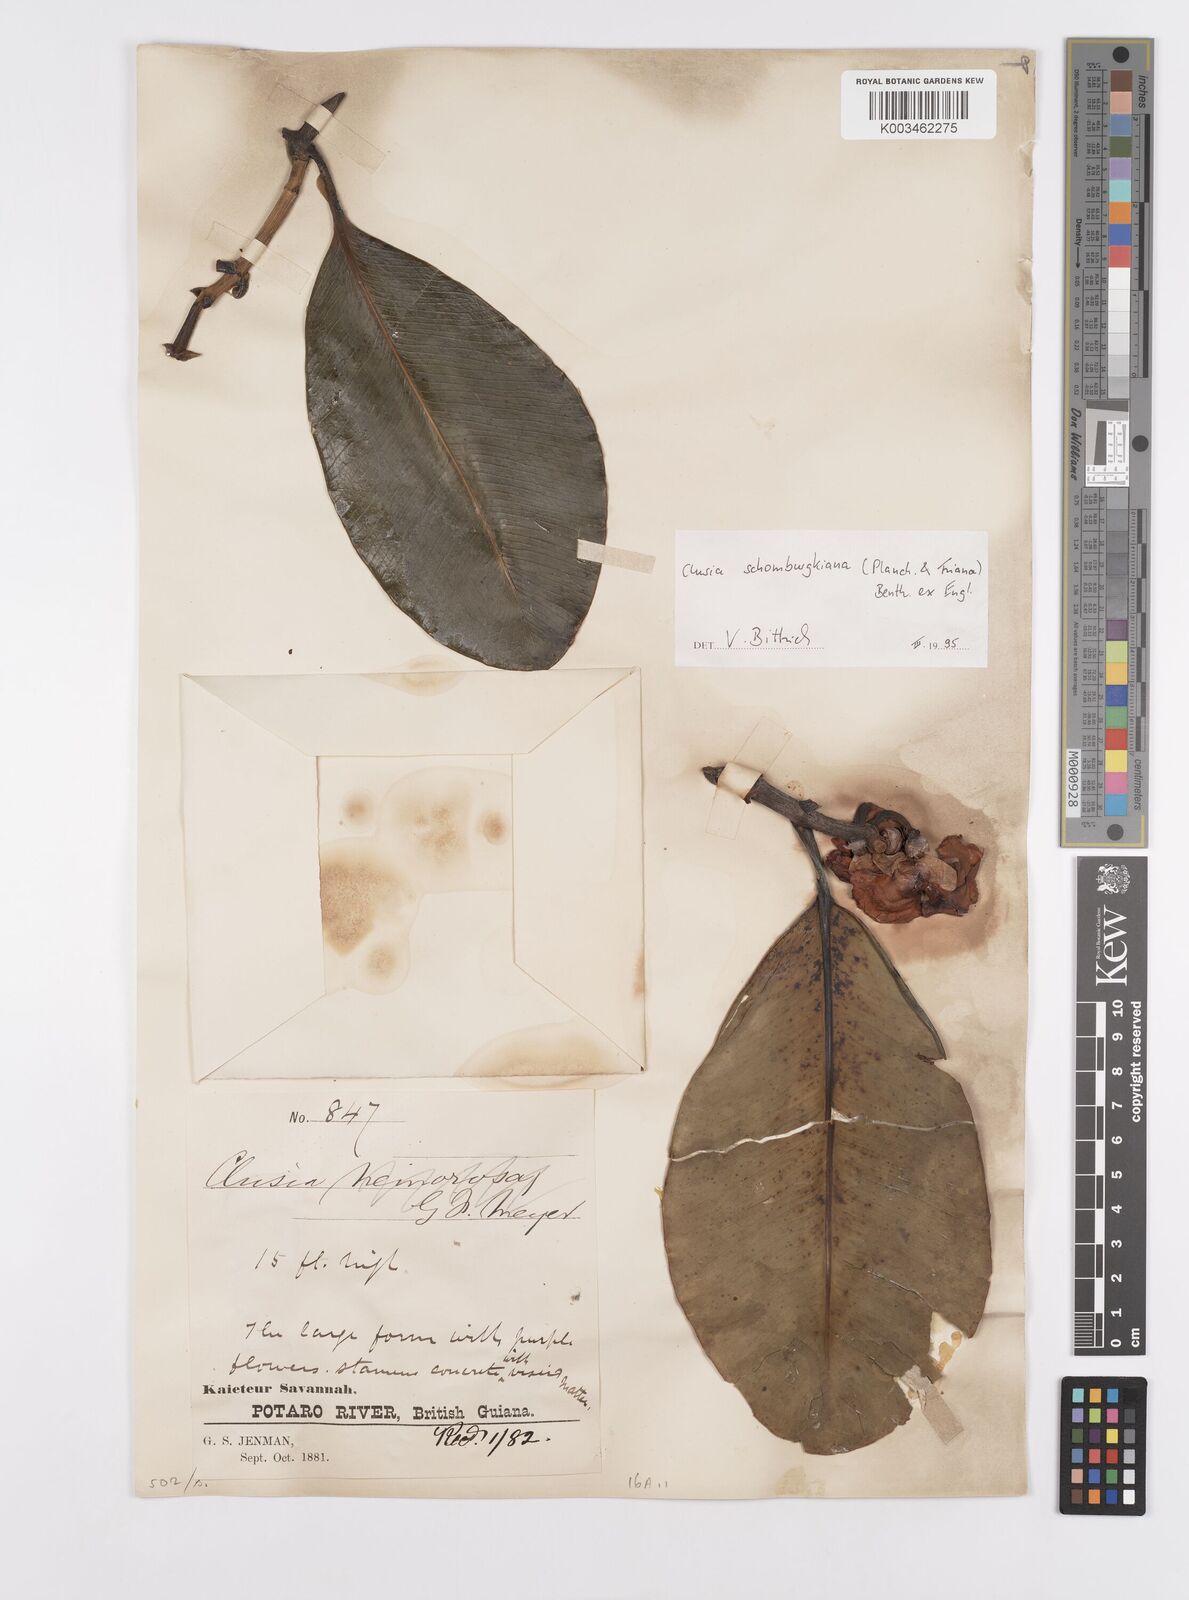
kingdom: Plantae
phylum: Tracheophyta
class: Magnoliopsida
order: Malpighiales
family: Clusiaceae
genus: Clusia
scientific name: Clusia schomburgkiana
